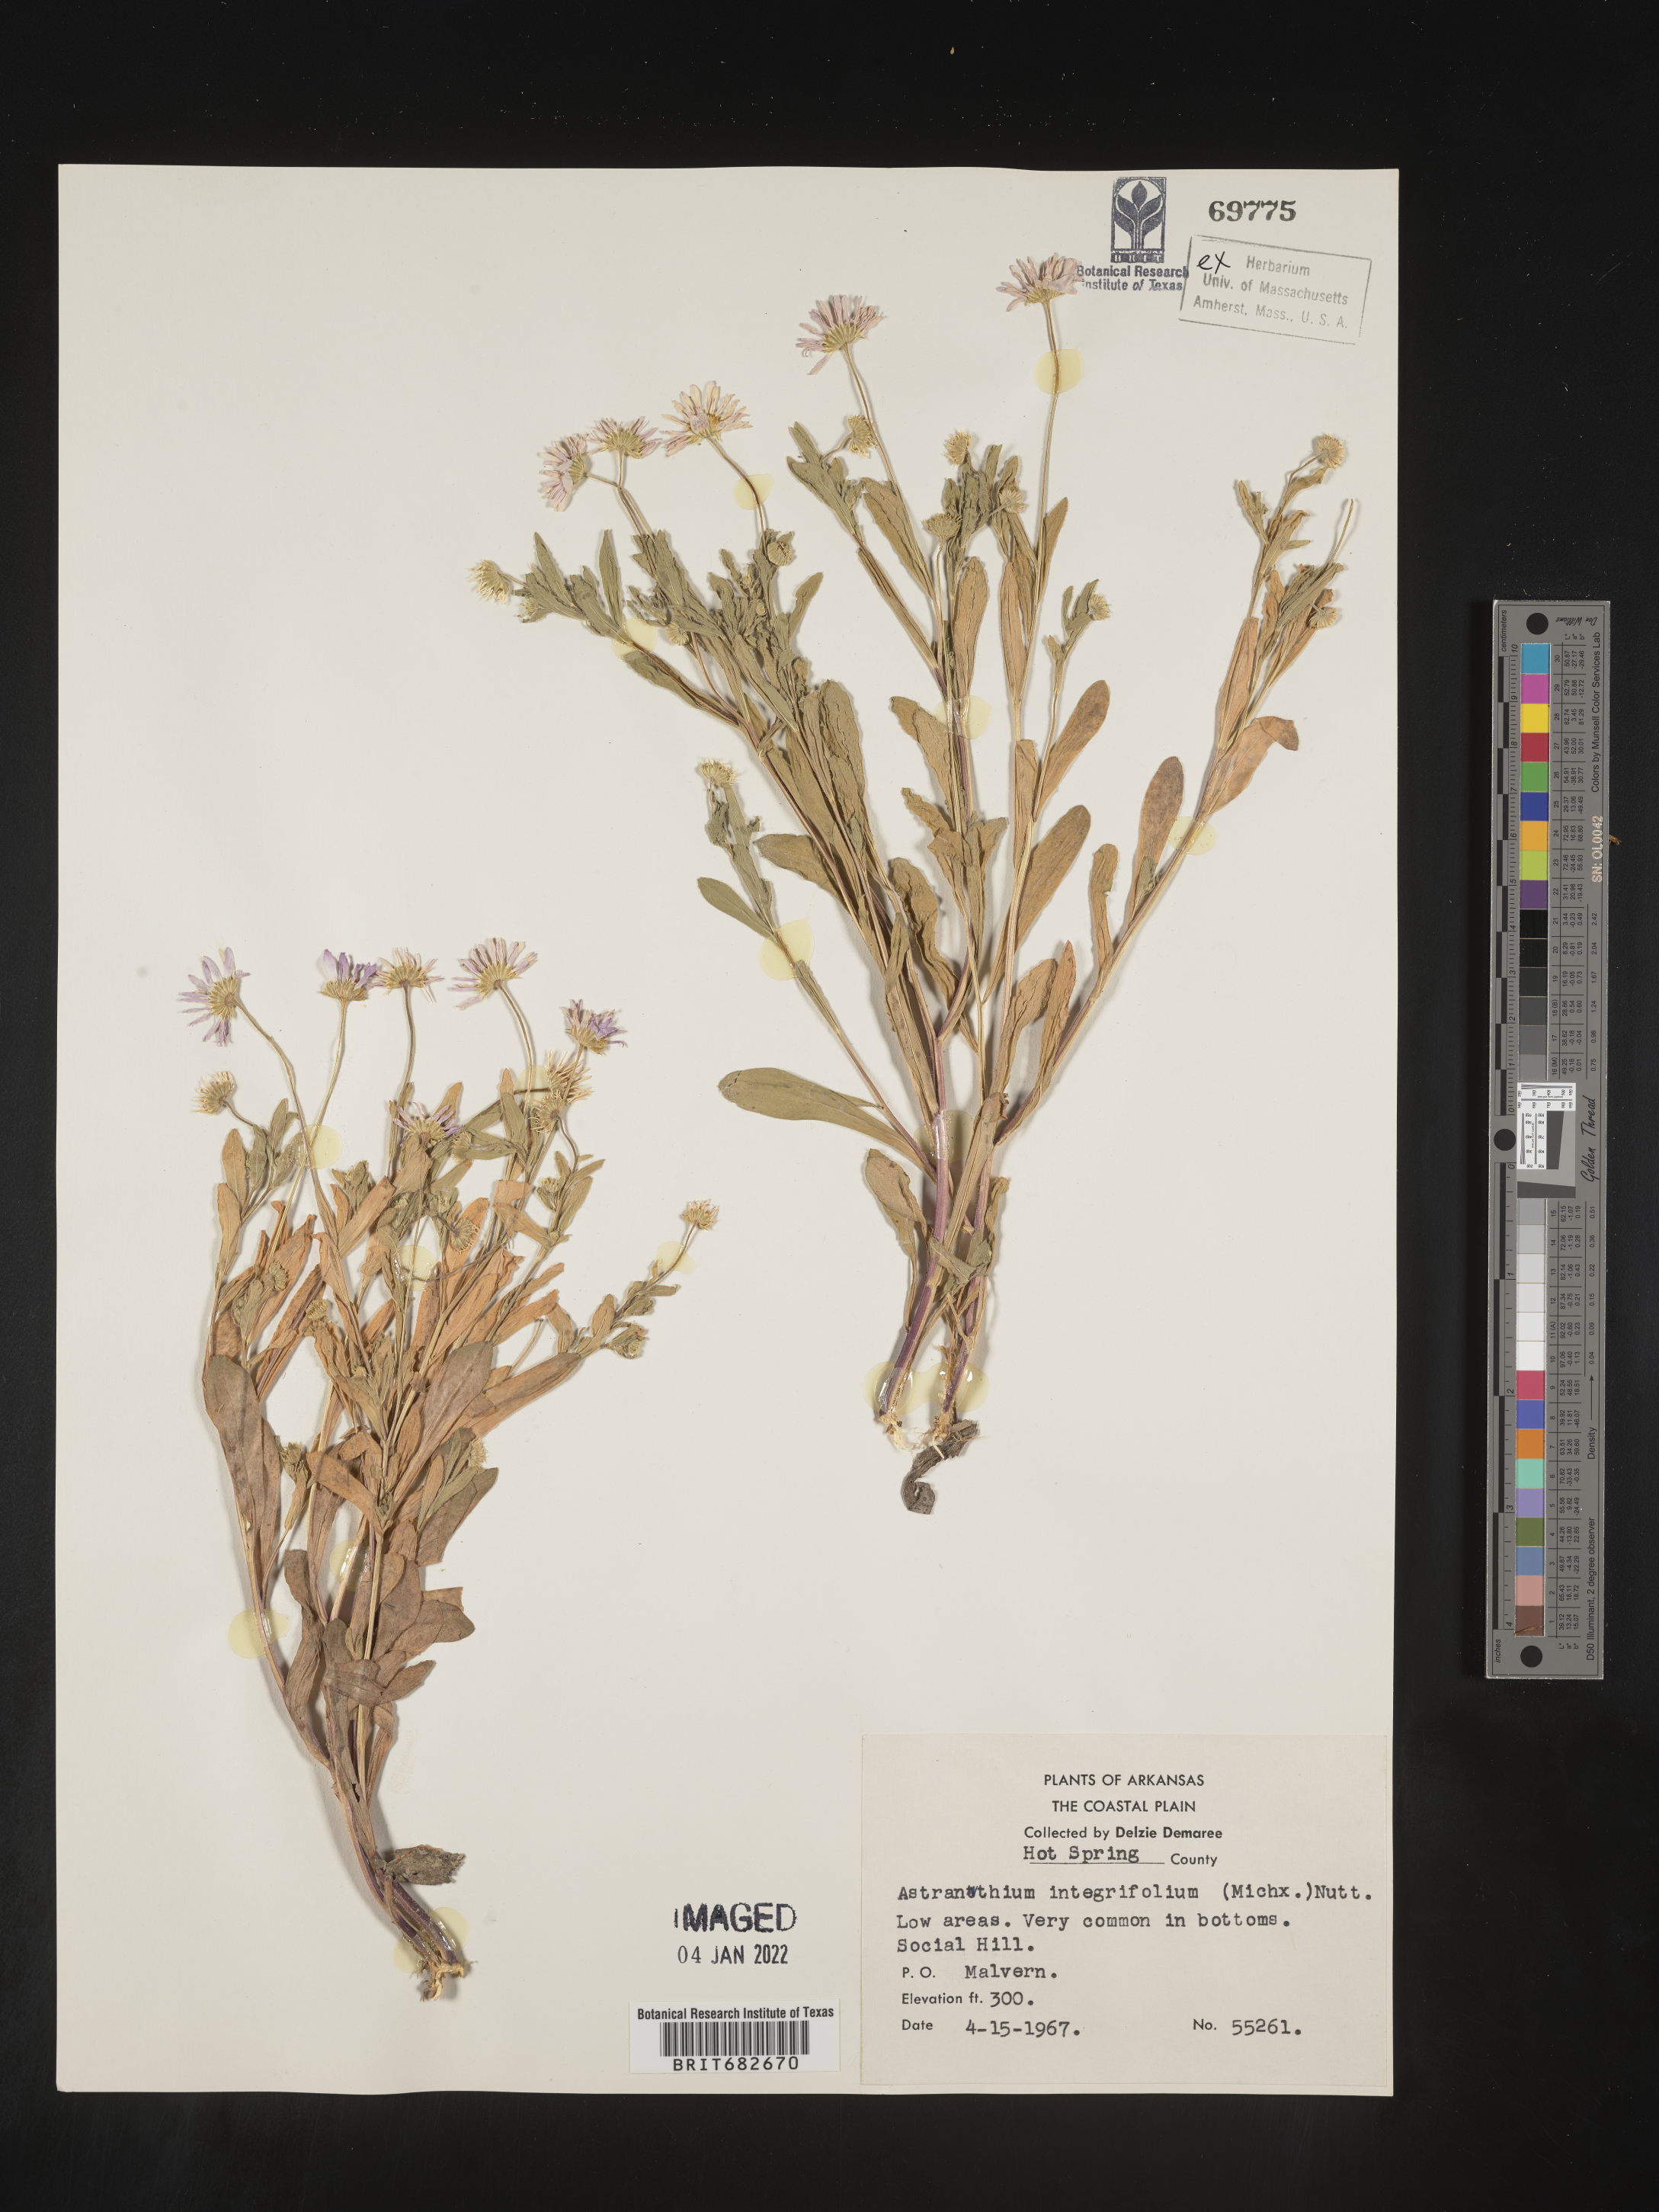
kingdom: Plantae
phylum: Tracheophyta
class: Magnoliopsida
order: Asterales
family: Asteraceae
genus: Astranthium
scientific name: Astranthium integrifolium
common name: Western daisy
